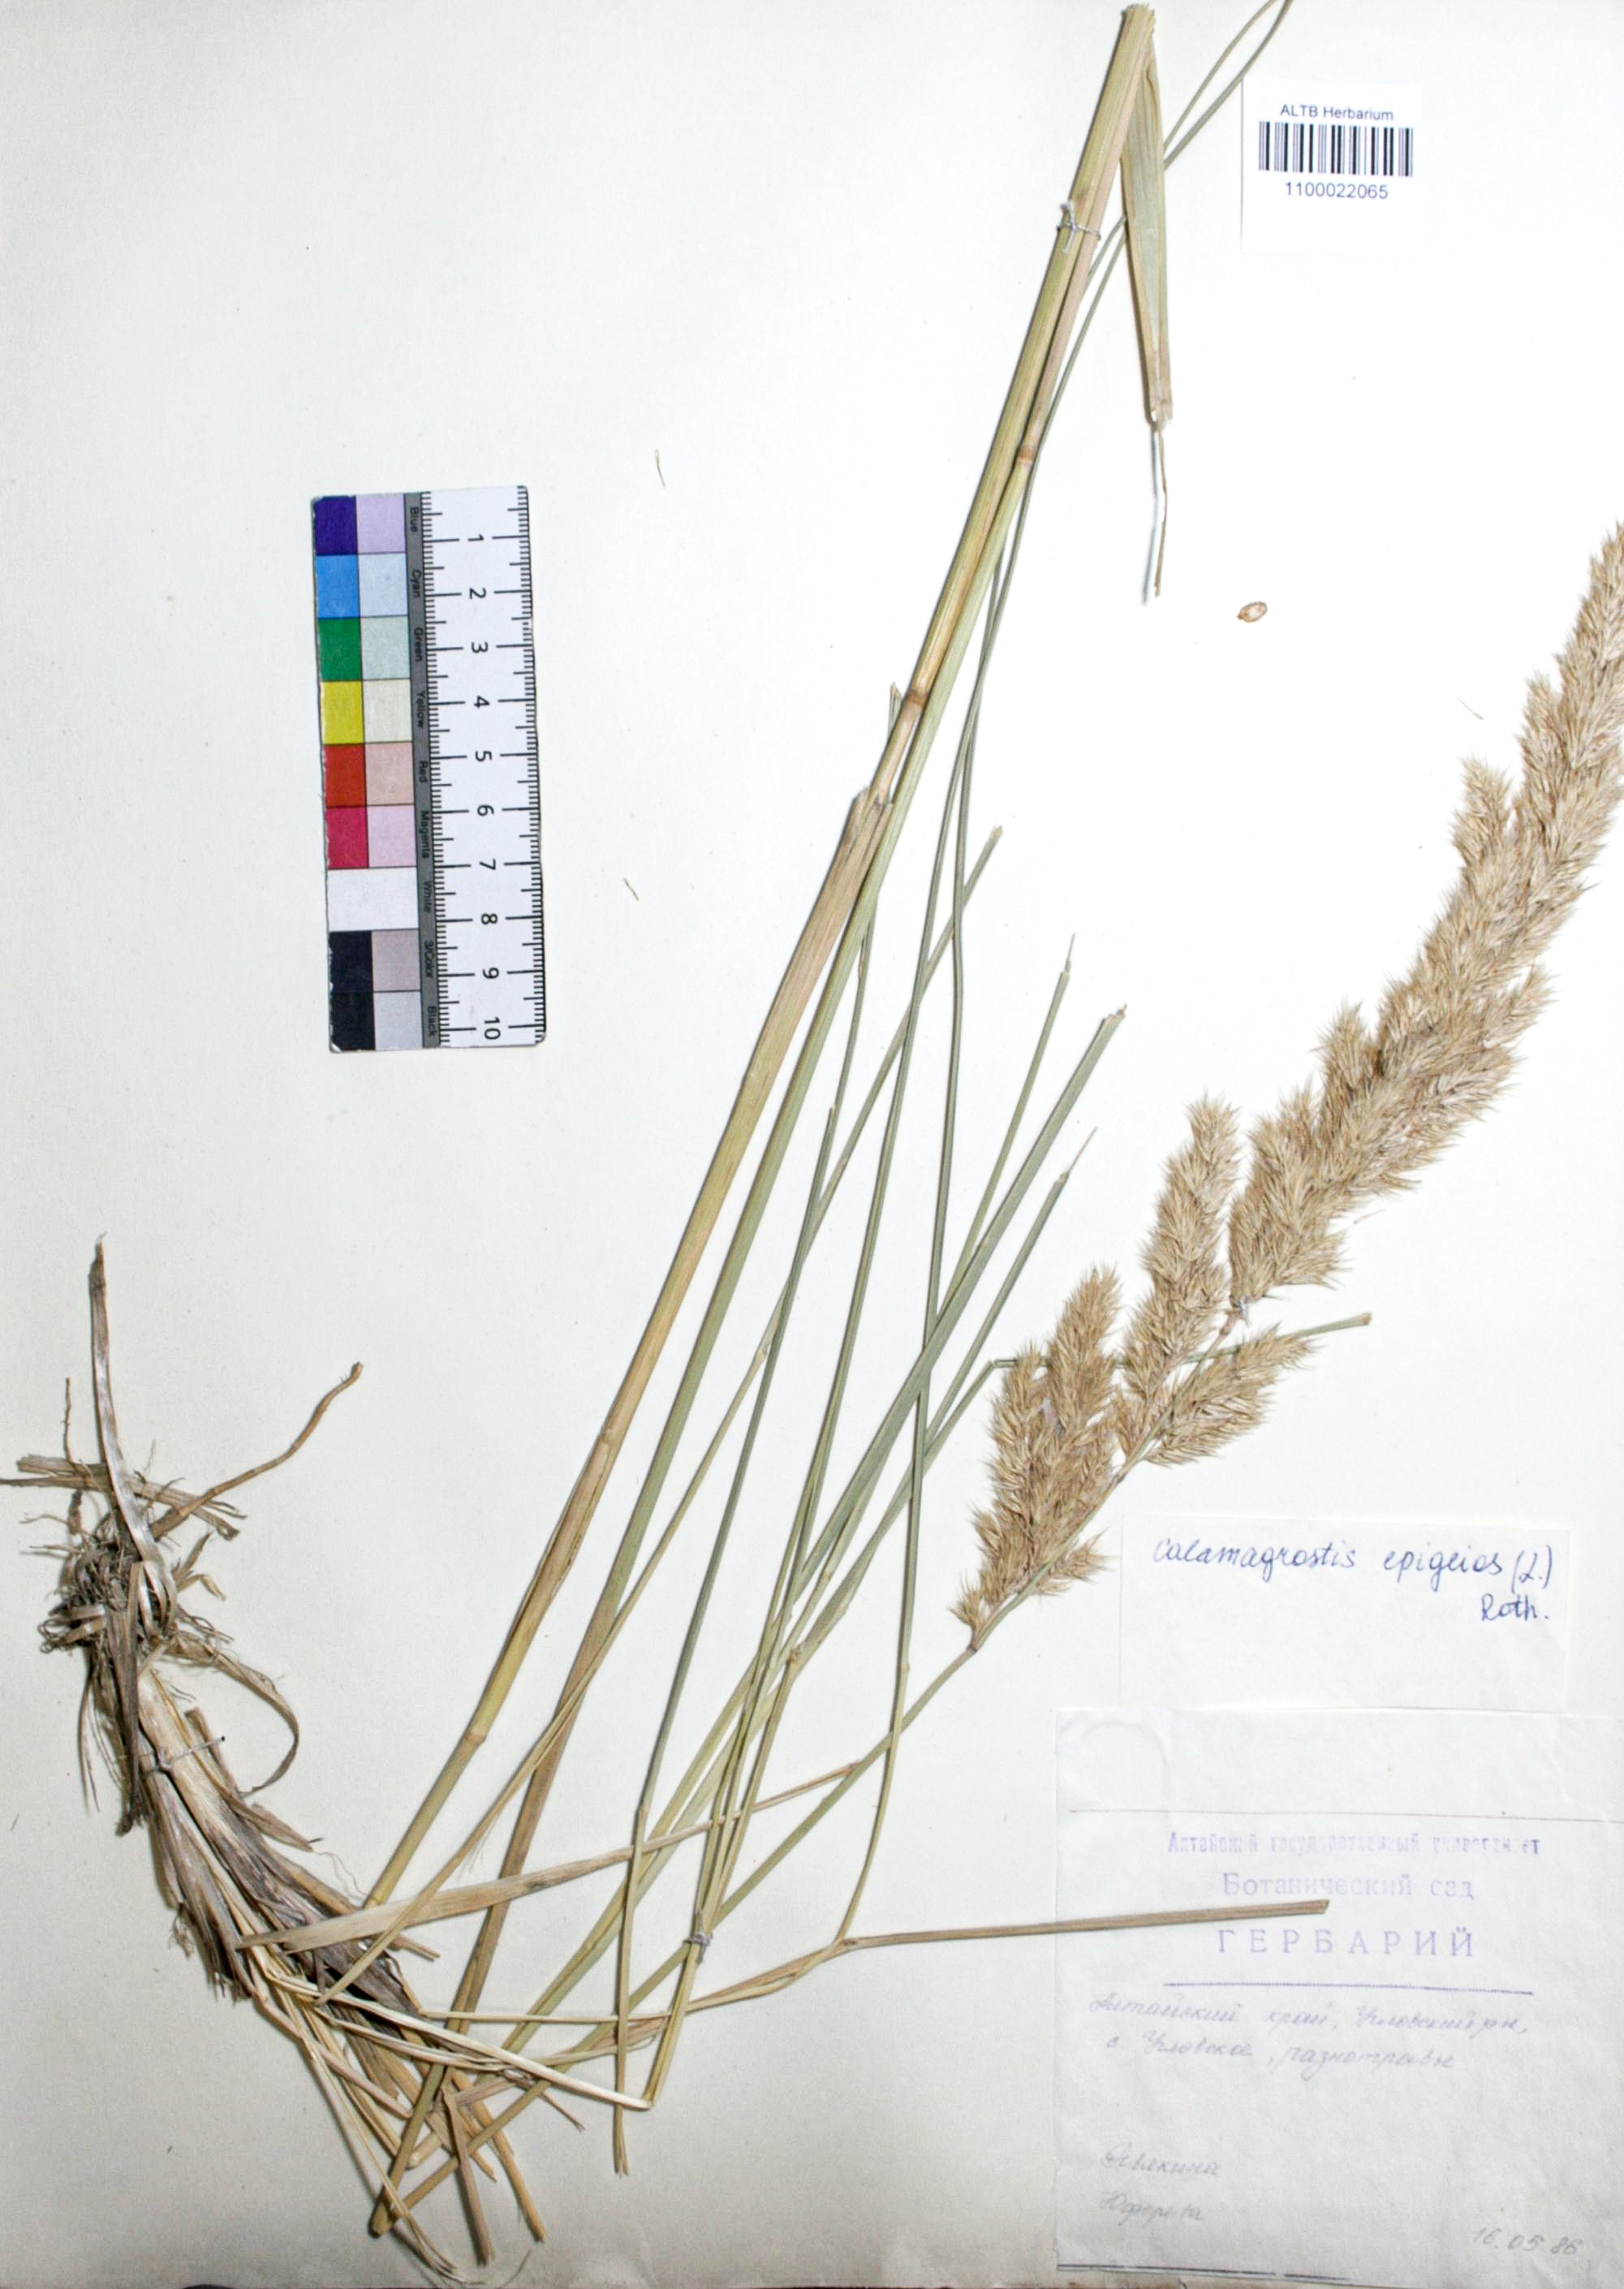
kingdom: Plantae
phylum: Tracheophyta
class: Liliopsida
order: Poales
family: Poaceae
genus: Calamagrostis
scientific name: Calamagrostis epigejos
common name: Wood small-reed
